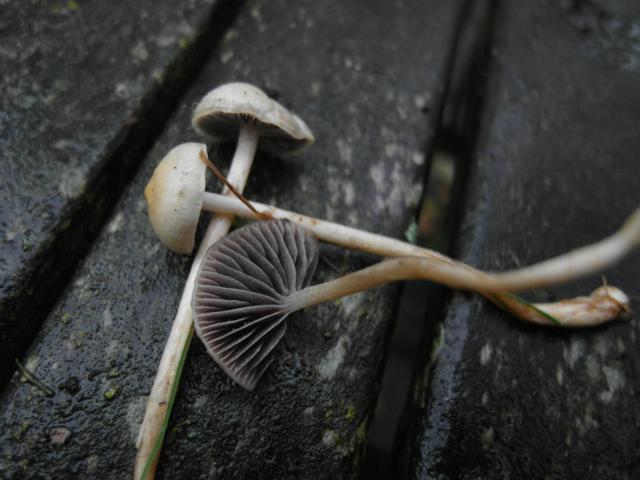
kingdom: Fungi
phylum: Basidiomycota
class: Agaricomycetes
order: Agaricales
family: Strophariaceae
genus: Protostropharia
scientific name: Protostropharia semiglobata
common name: halvkugleformet bredblad
